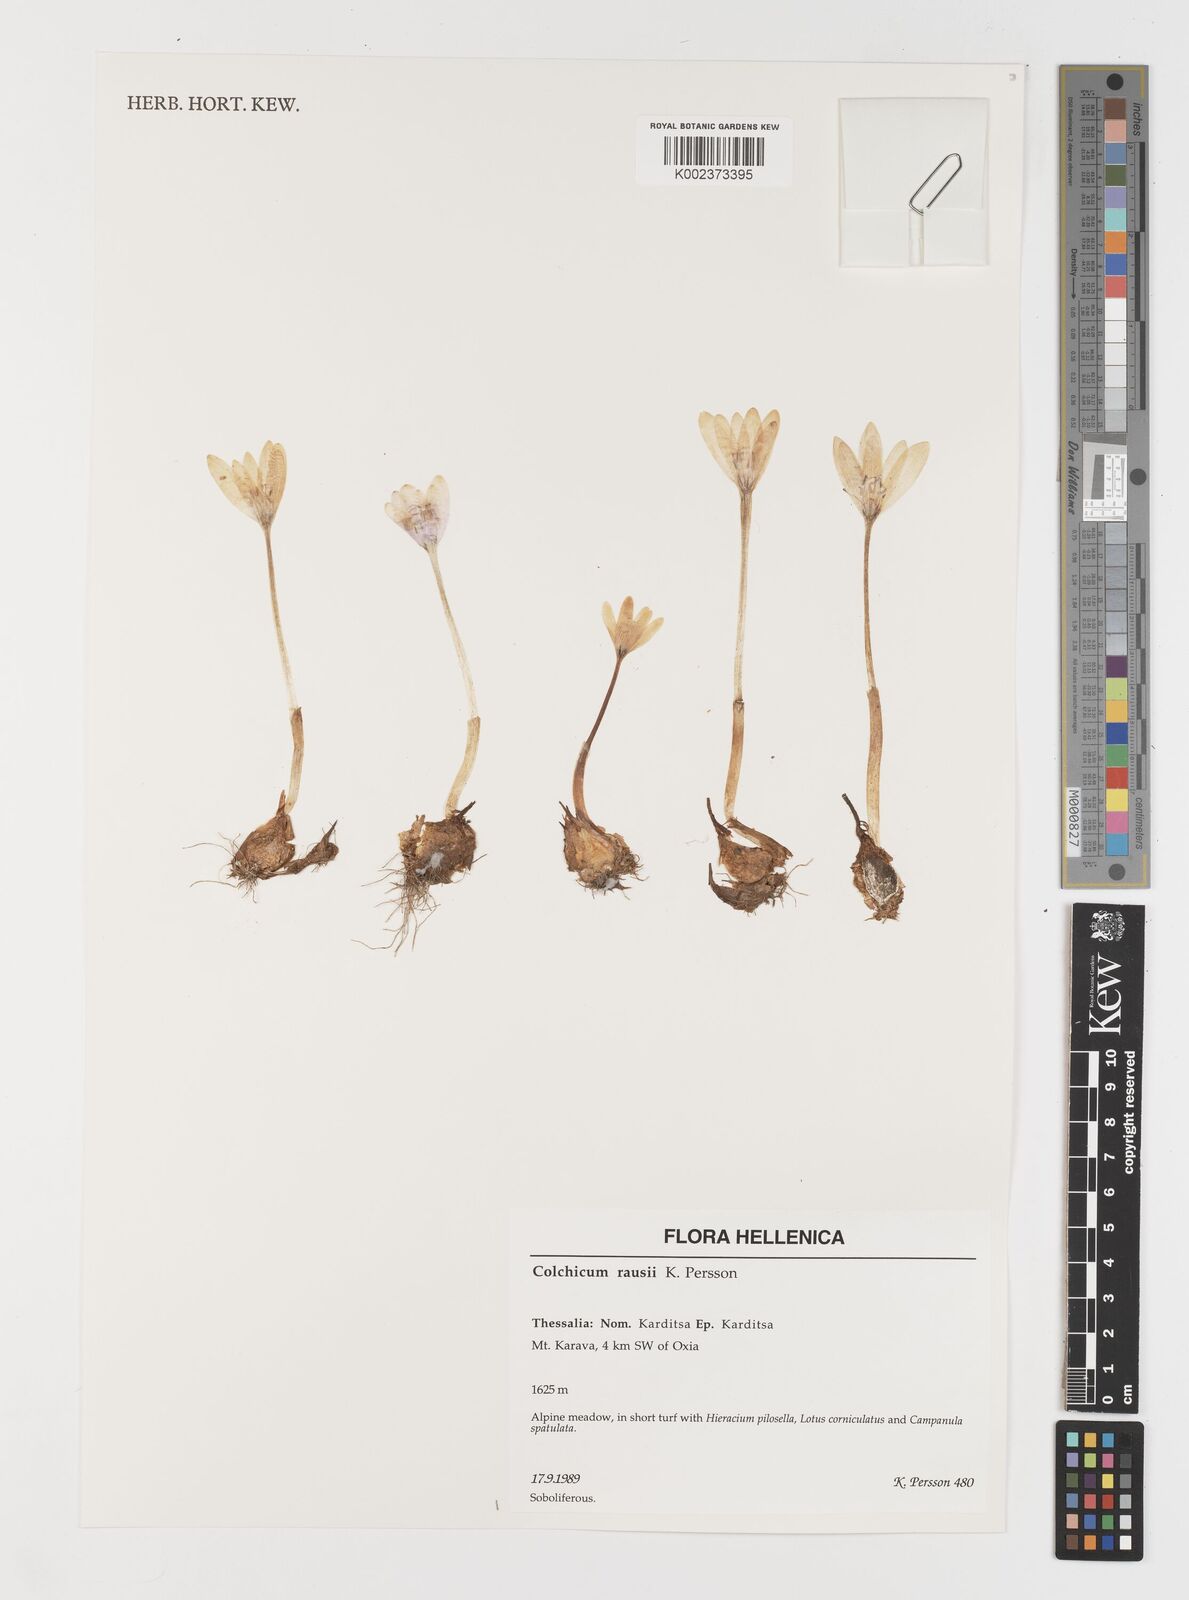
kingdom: Plantae
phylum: Tracheophyta
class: Liliopsida
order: Liliales
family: Colchicaceae
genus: Colchicum
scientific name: Colchicum rausii
